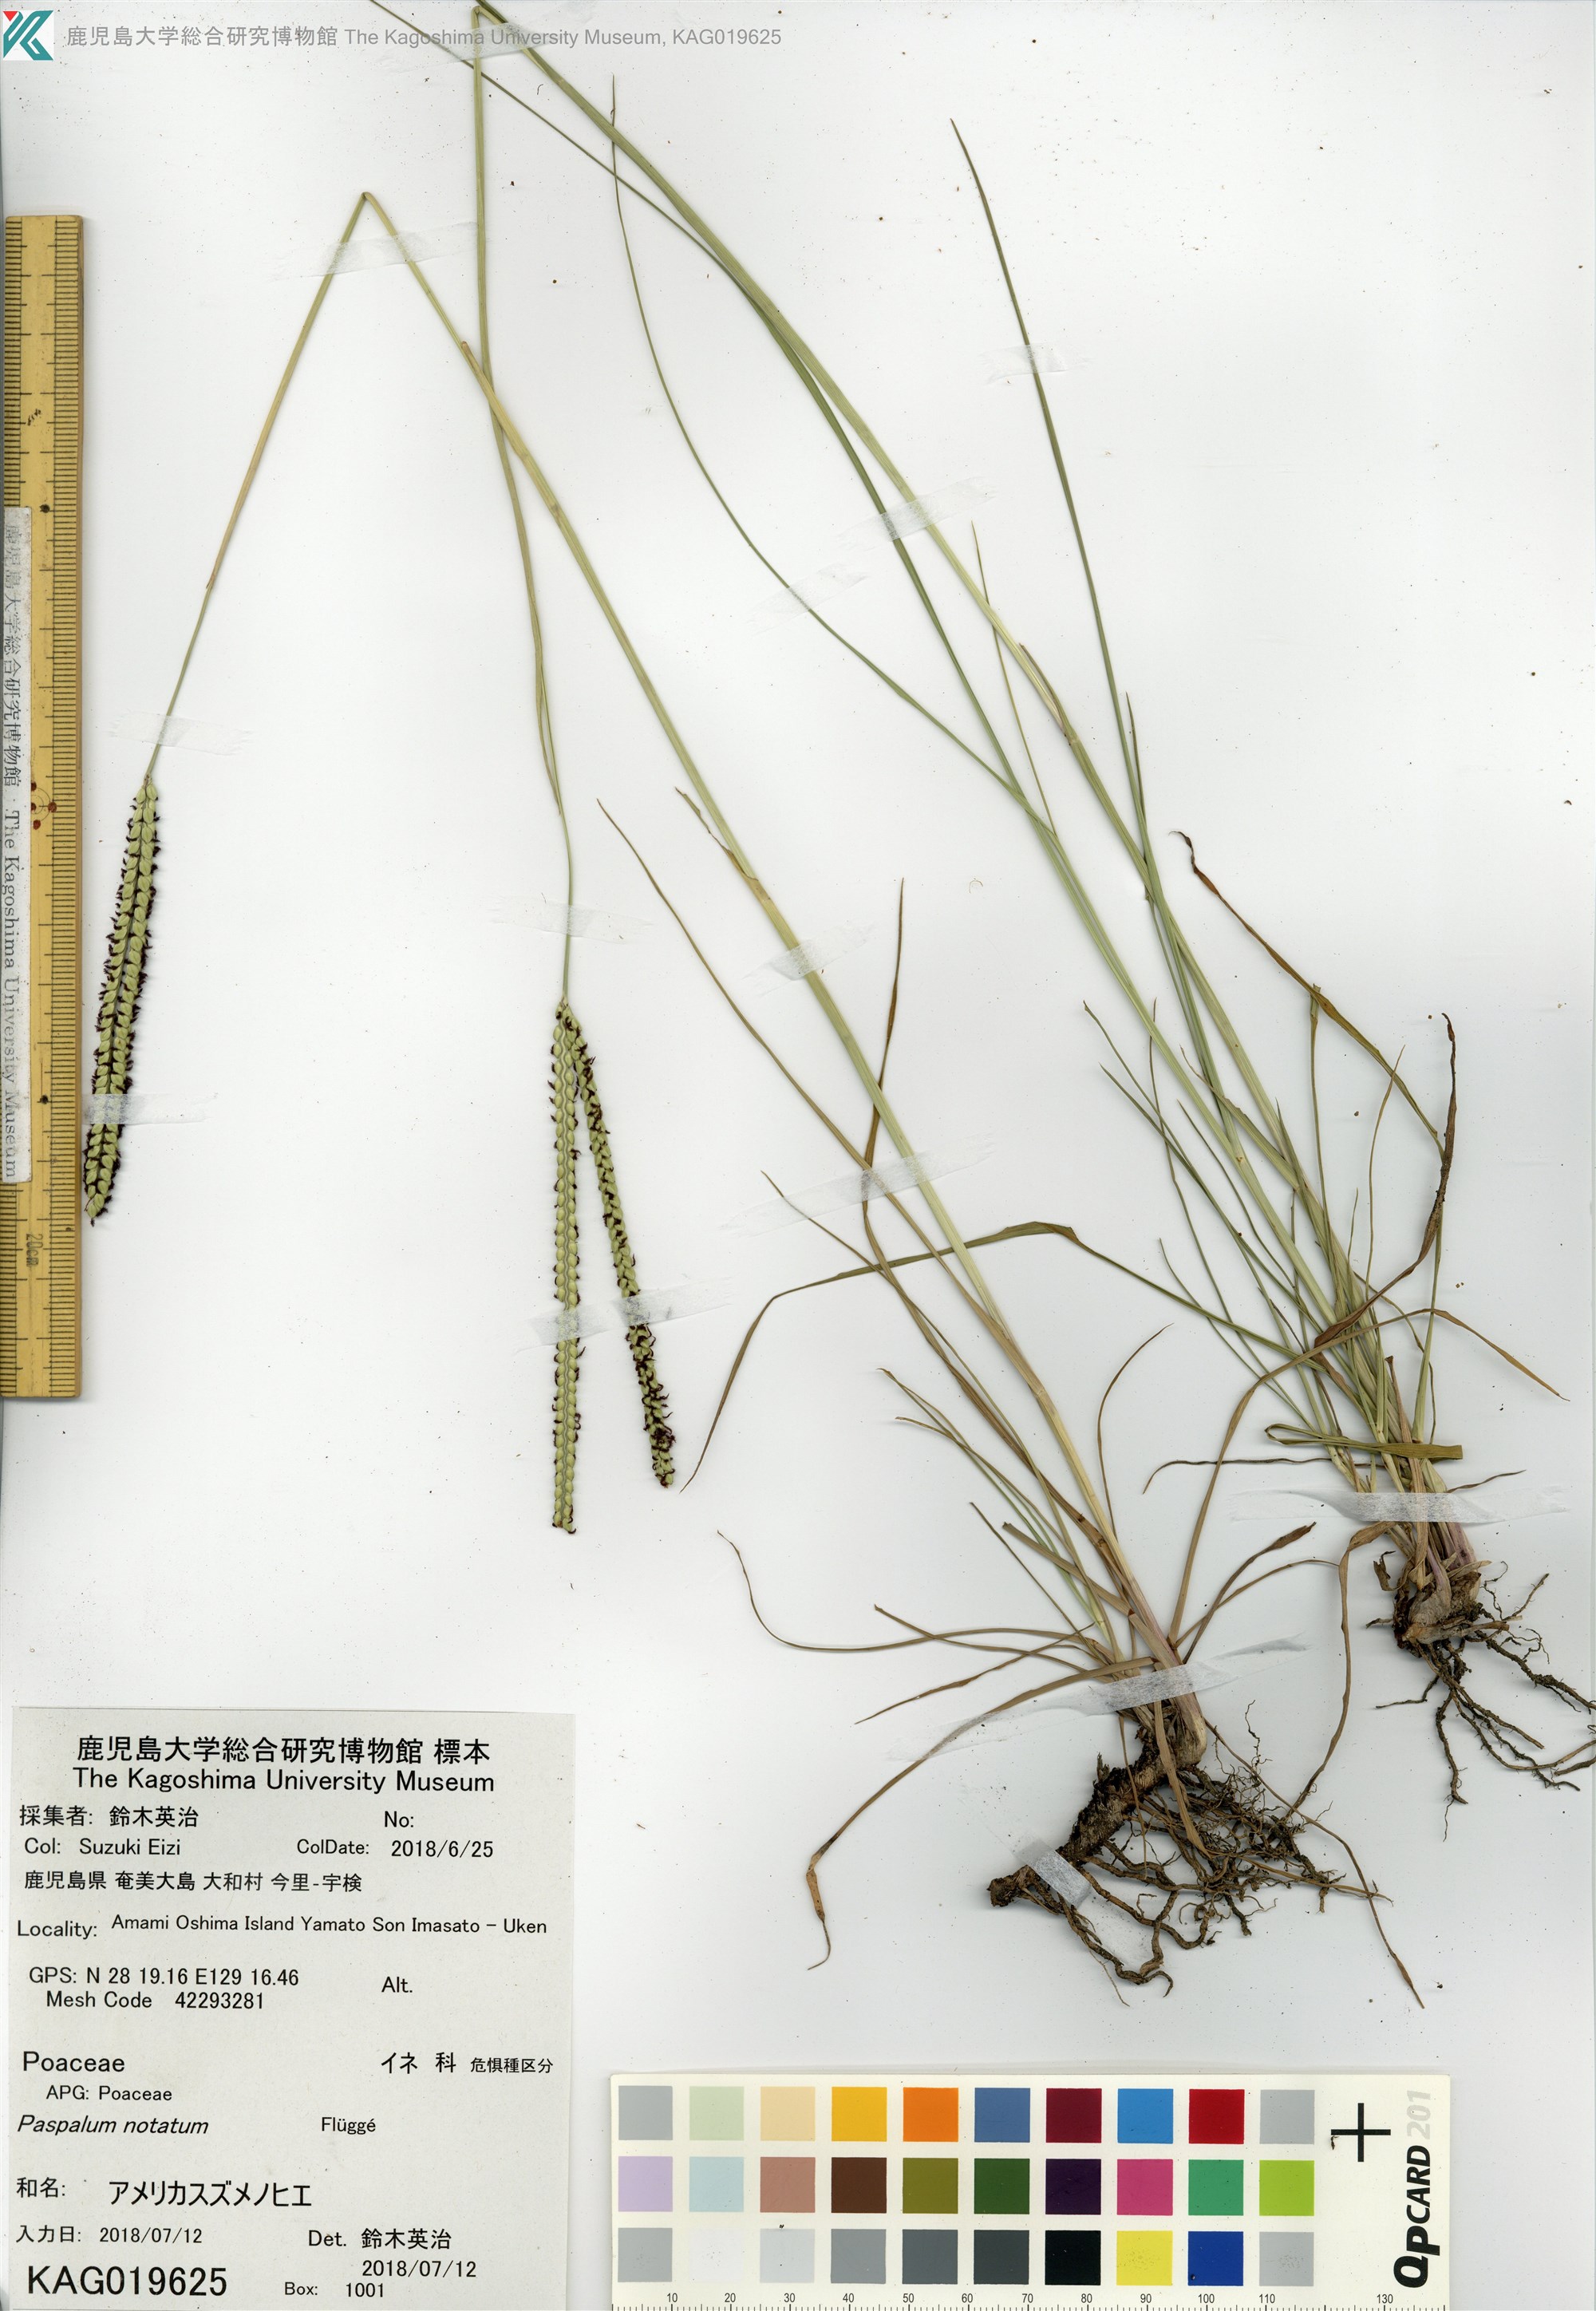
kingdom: Plantae
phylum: Tracheophyta
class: Liliopsida
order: Poales
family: Poaceae
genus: Paspalum
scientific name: Paspalum notatum
